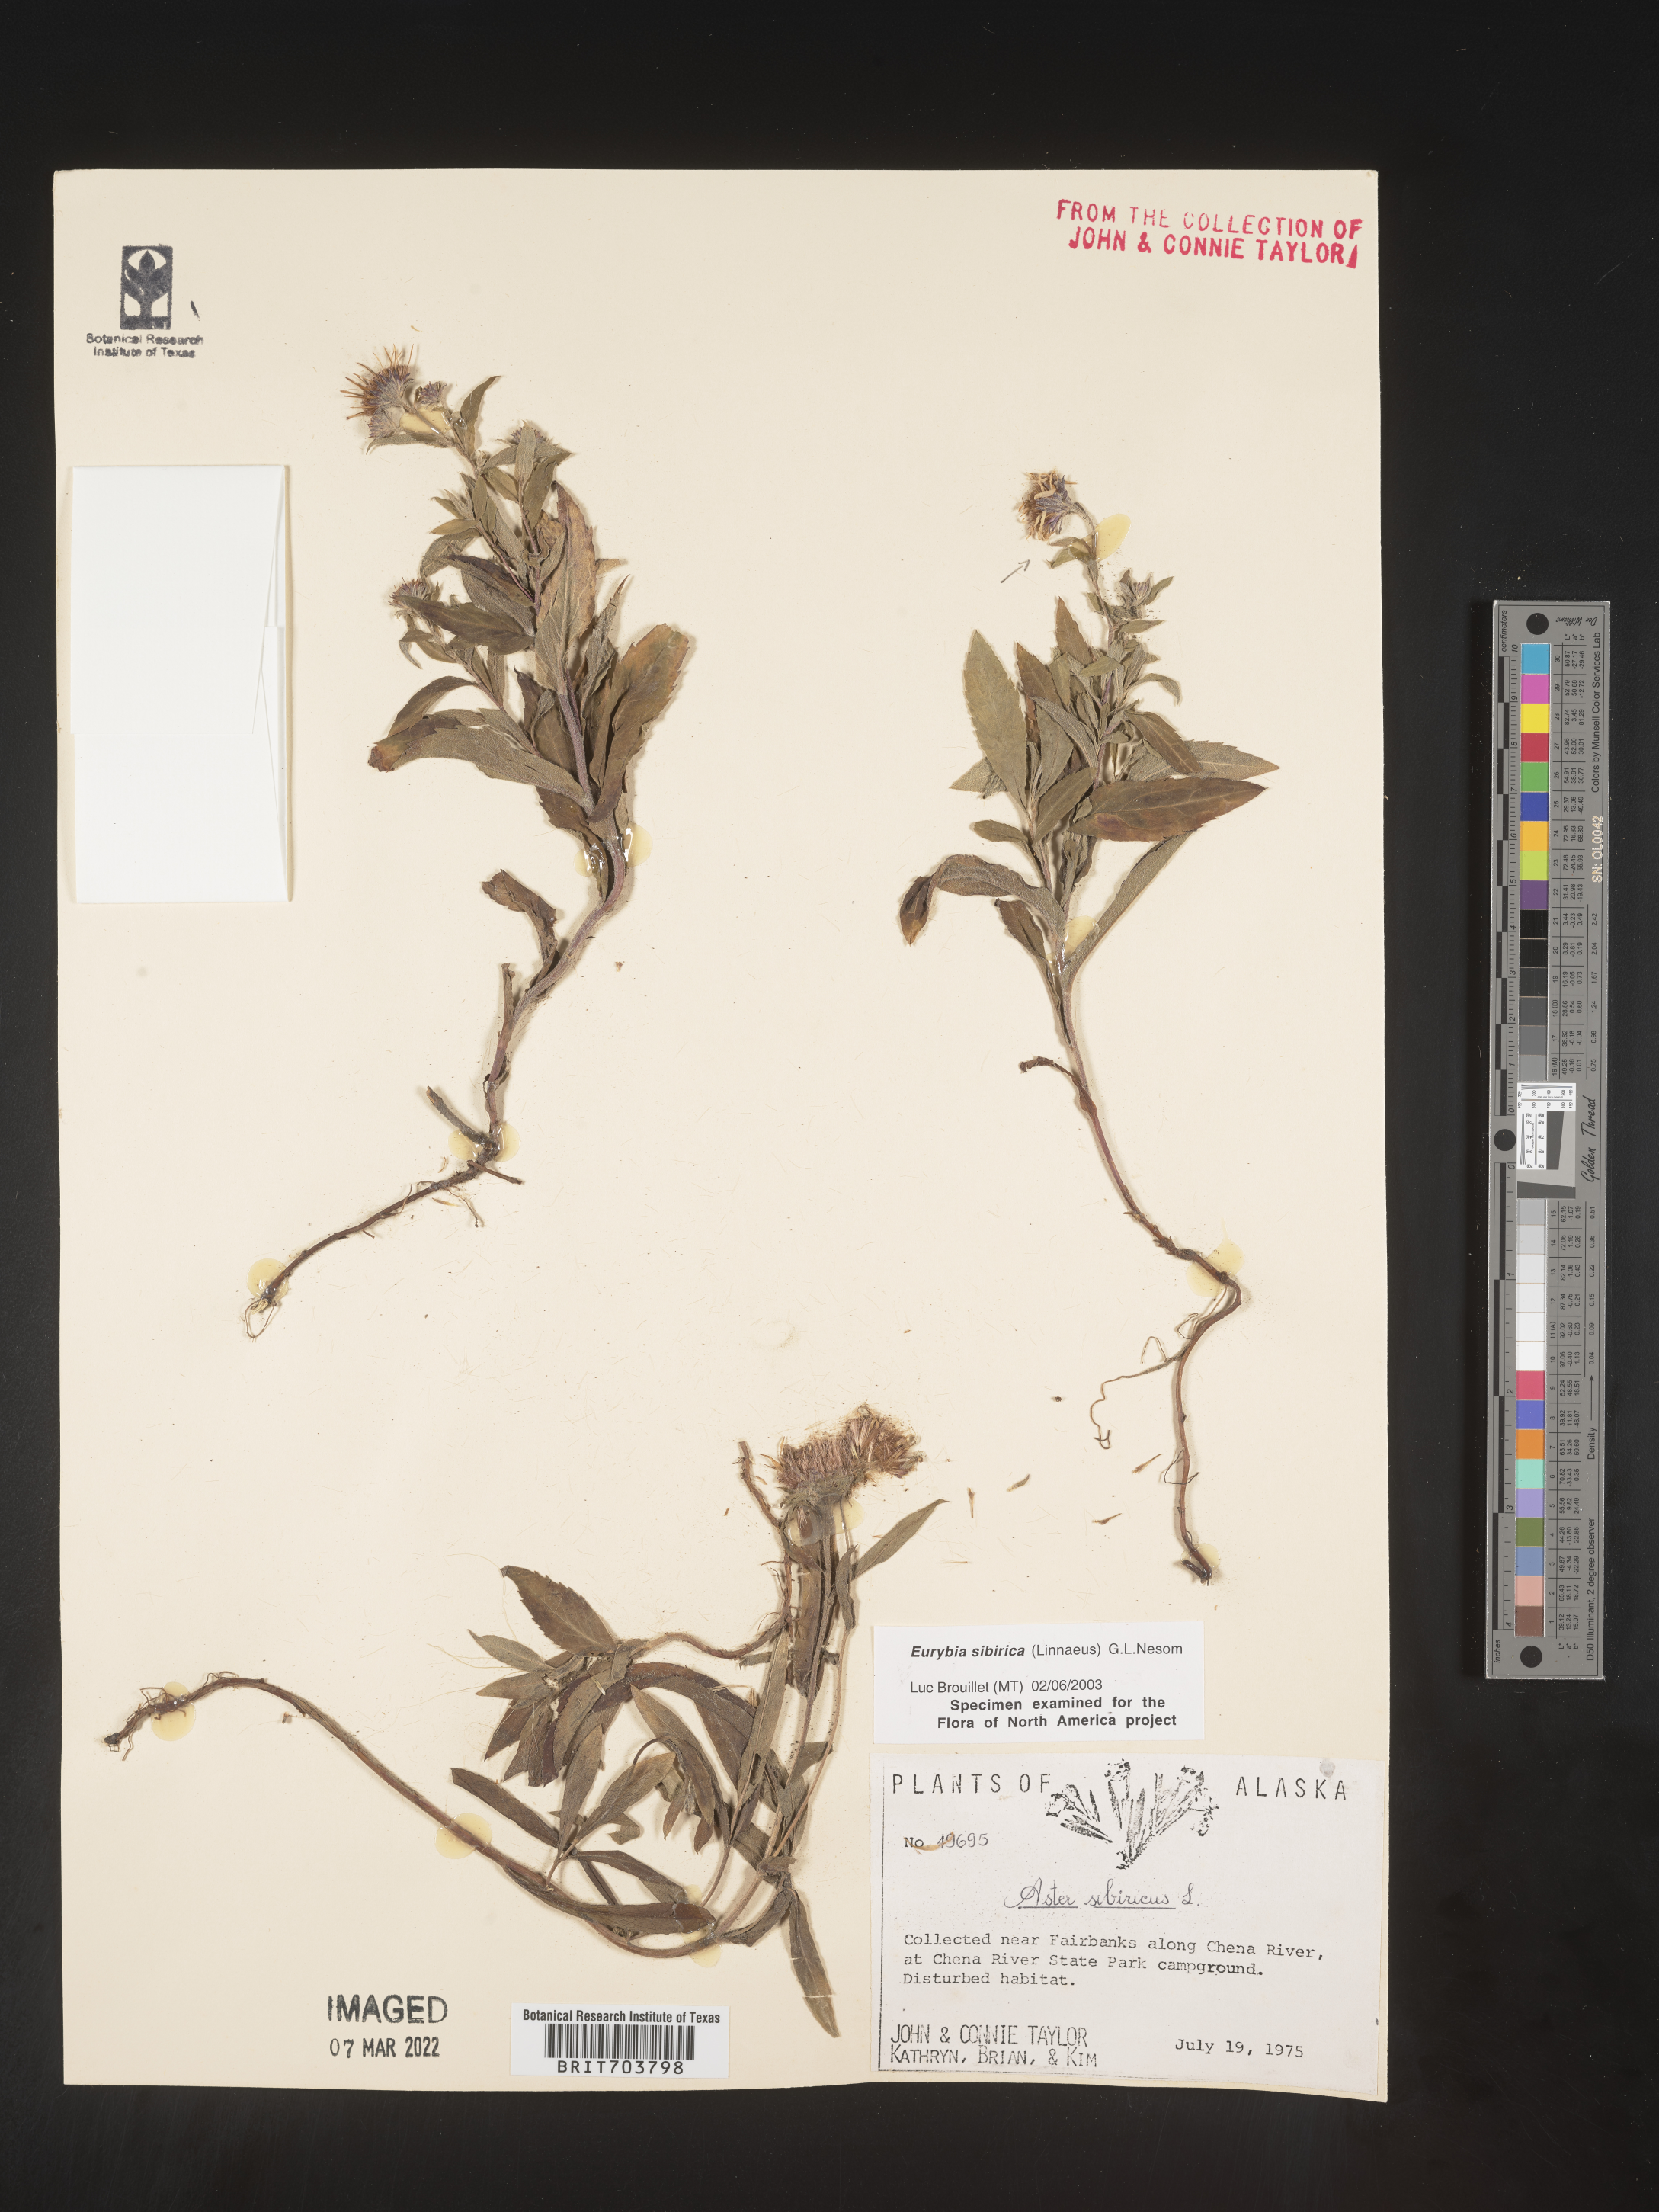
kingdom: Plantae
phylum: Tracheophyta
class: Magnoliopsida
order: Asterales
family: Asteraceae
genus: Eurybia
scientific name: Eurybia sibirica
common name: Arctic aster
